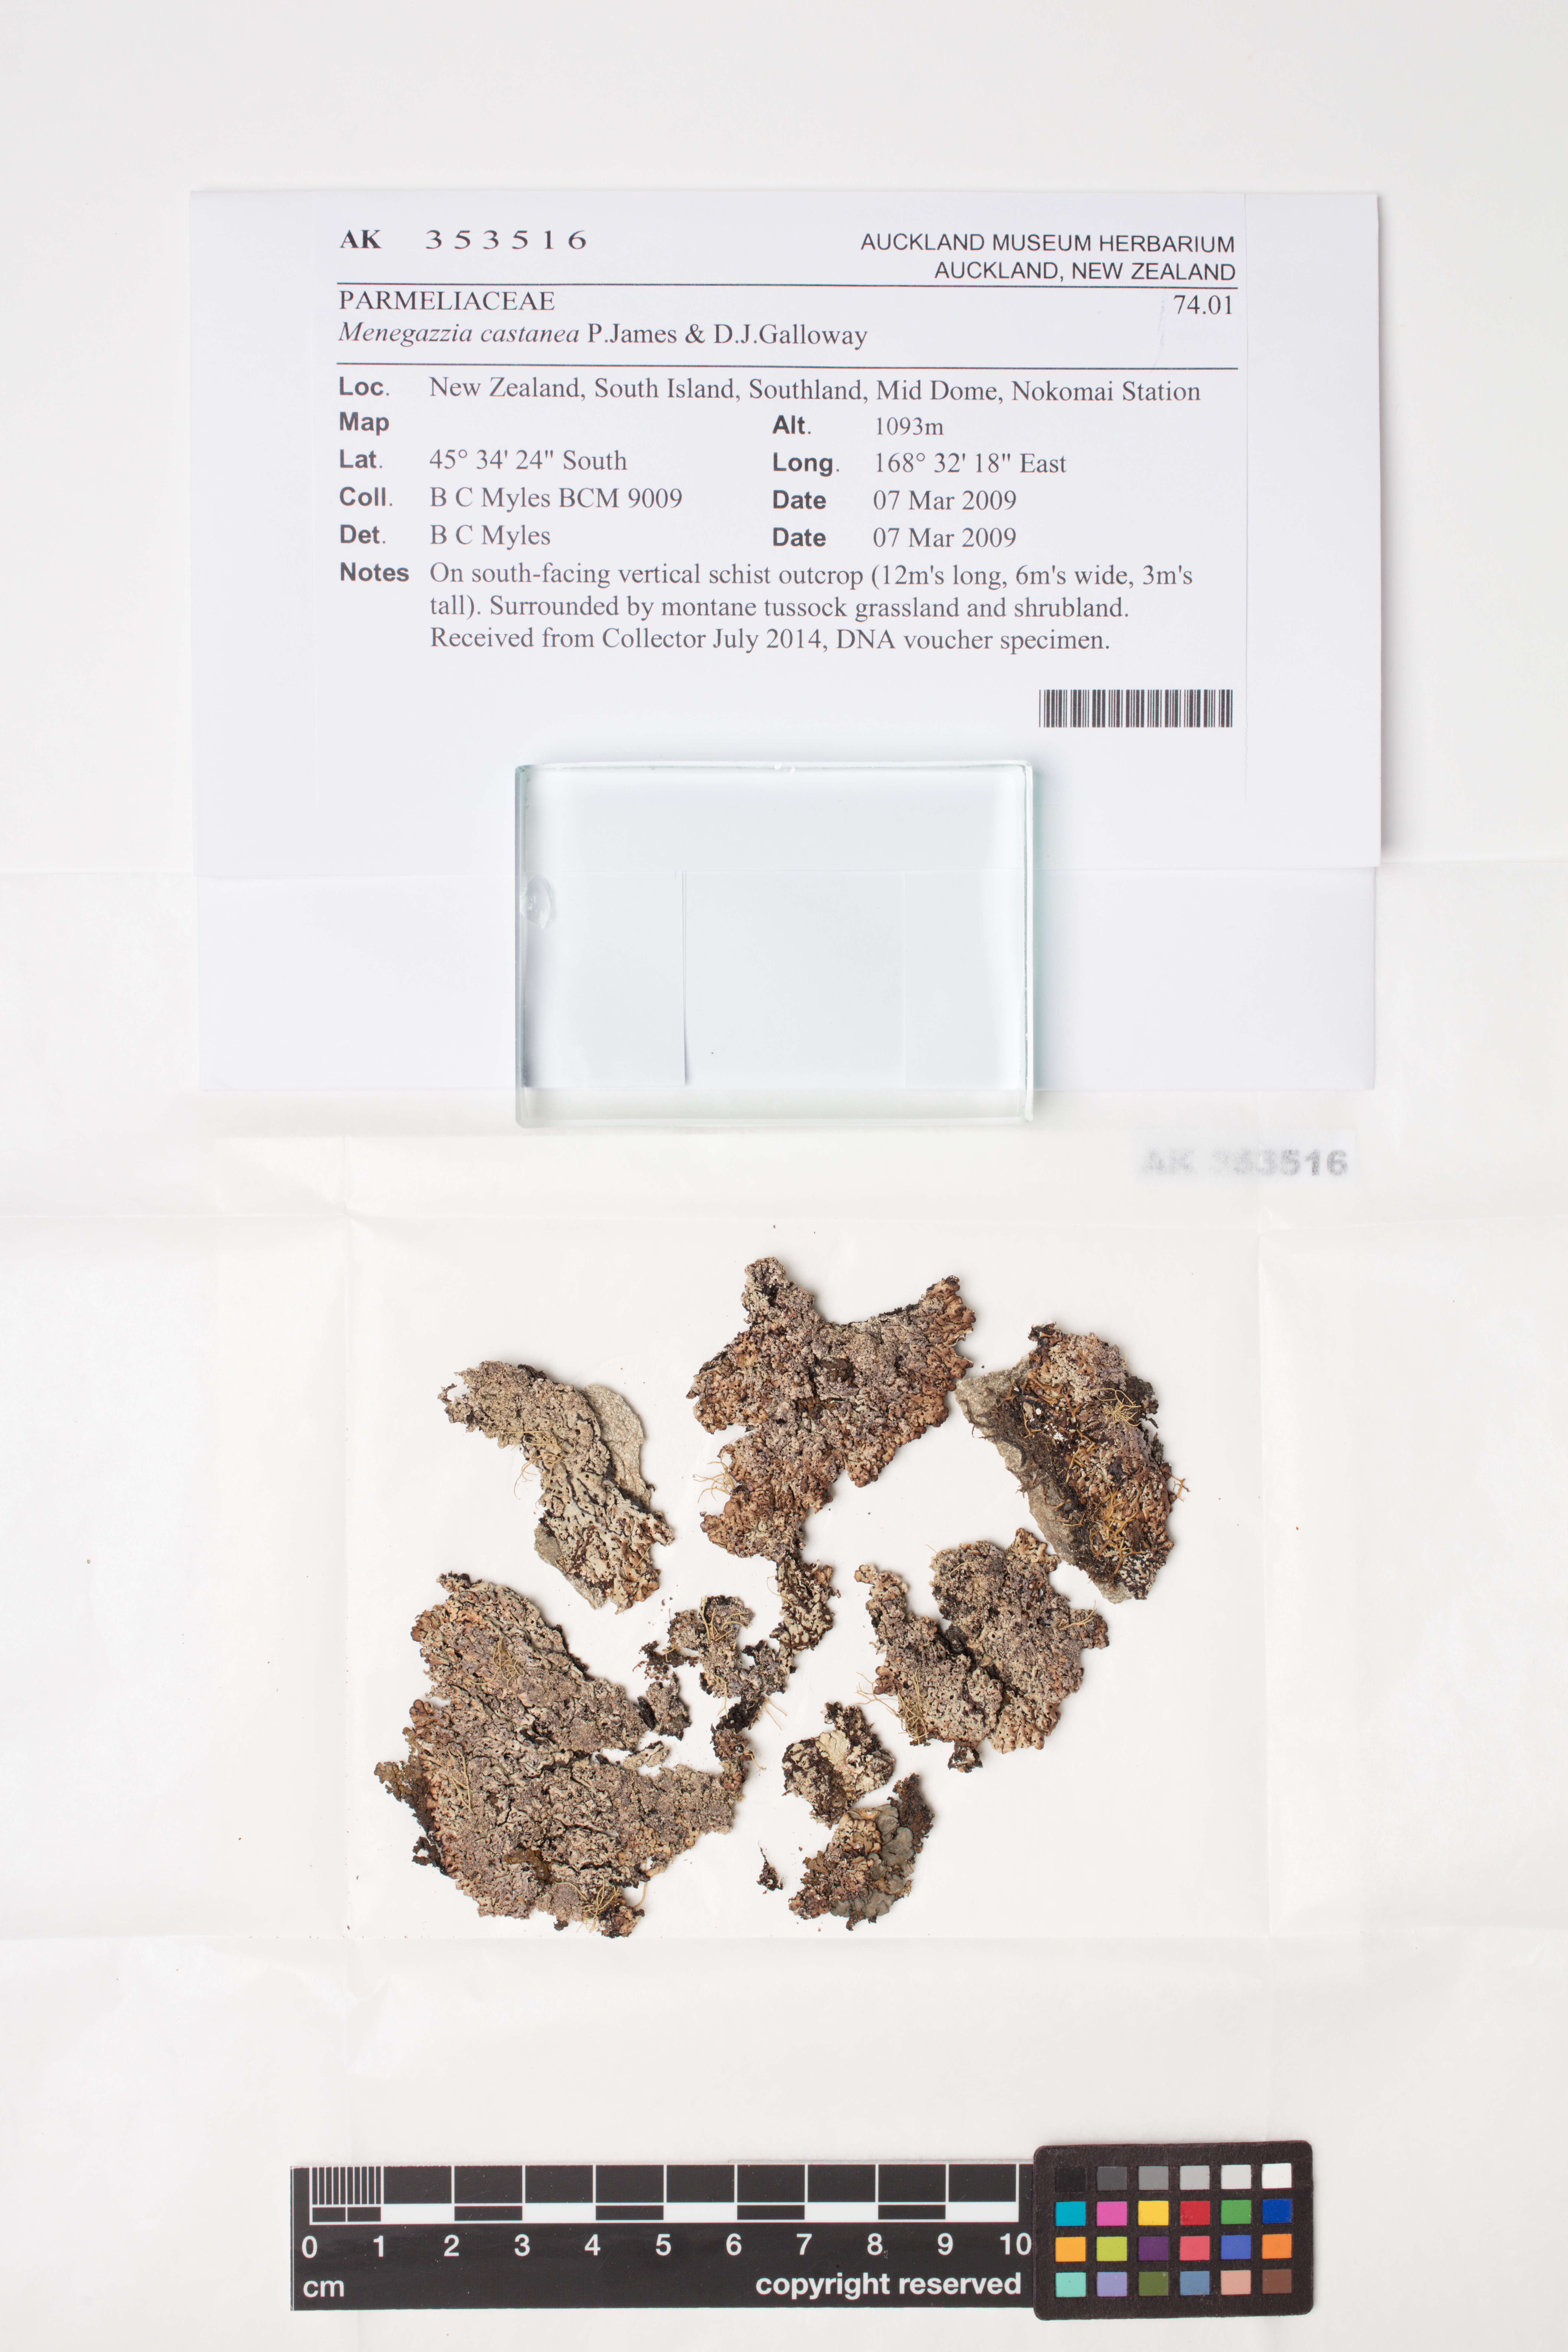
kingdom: Fungi
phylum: Ascomycota
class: Lecanoromycetes
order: Lecanorales
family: Parmeliaceae
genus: Menegazzia
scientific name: Menegazzia castanea
